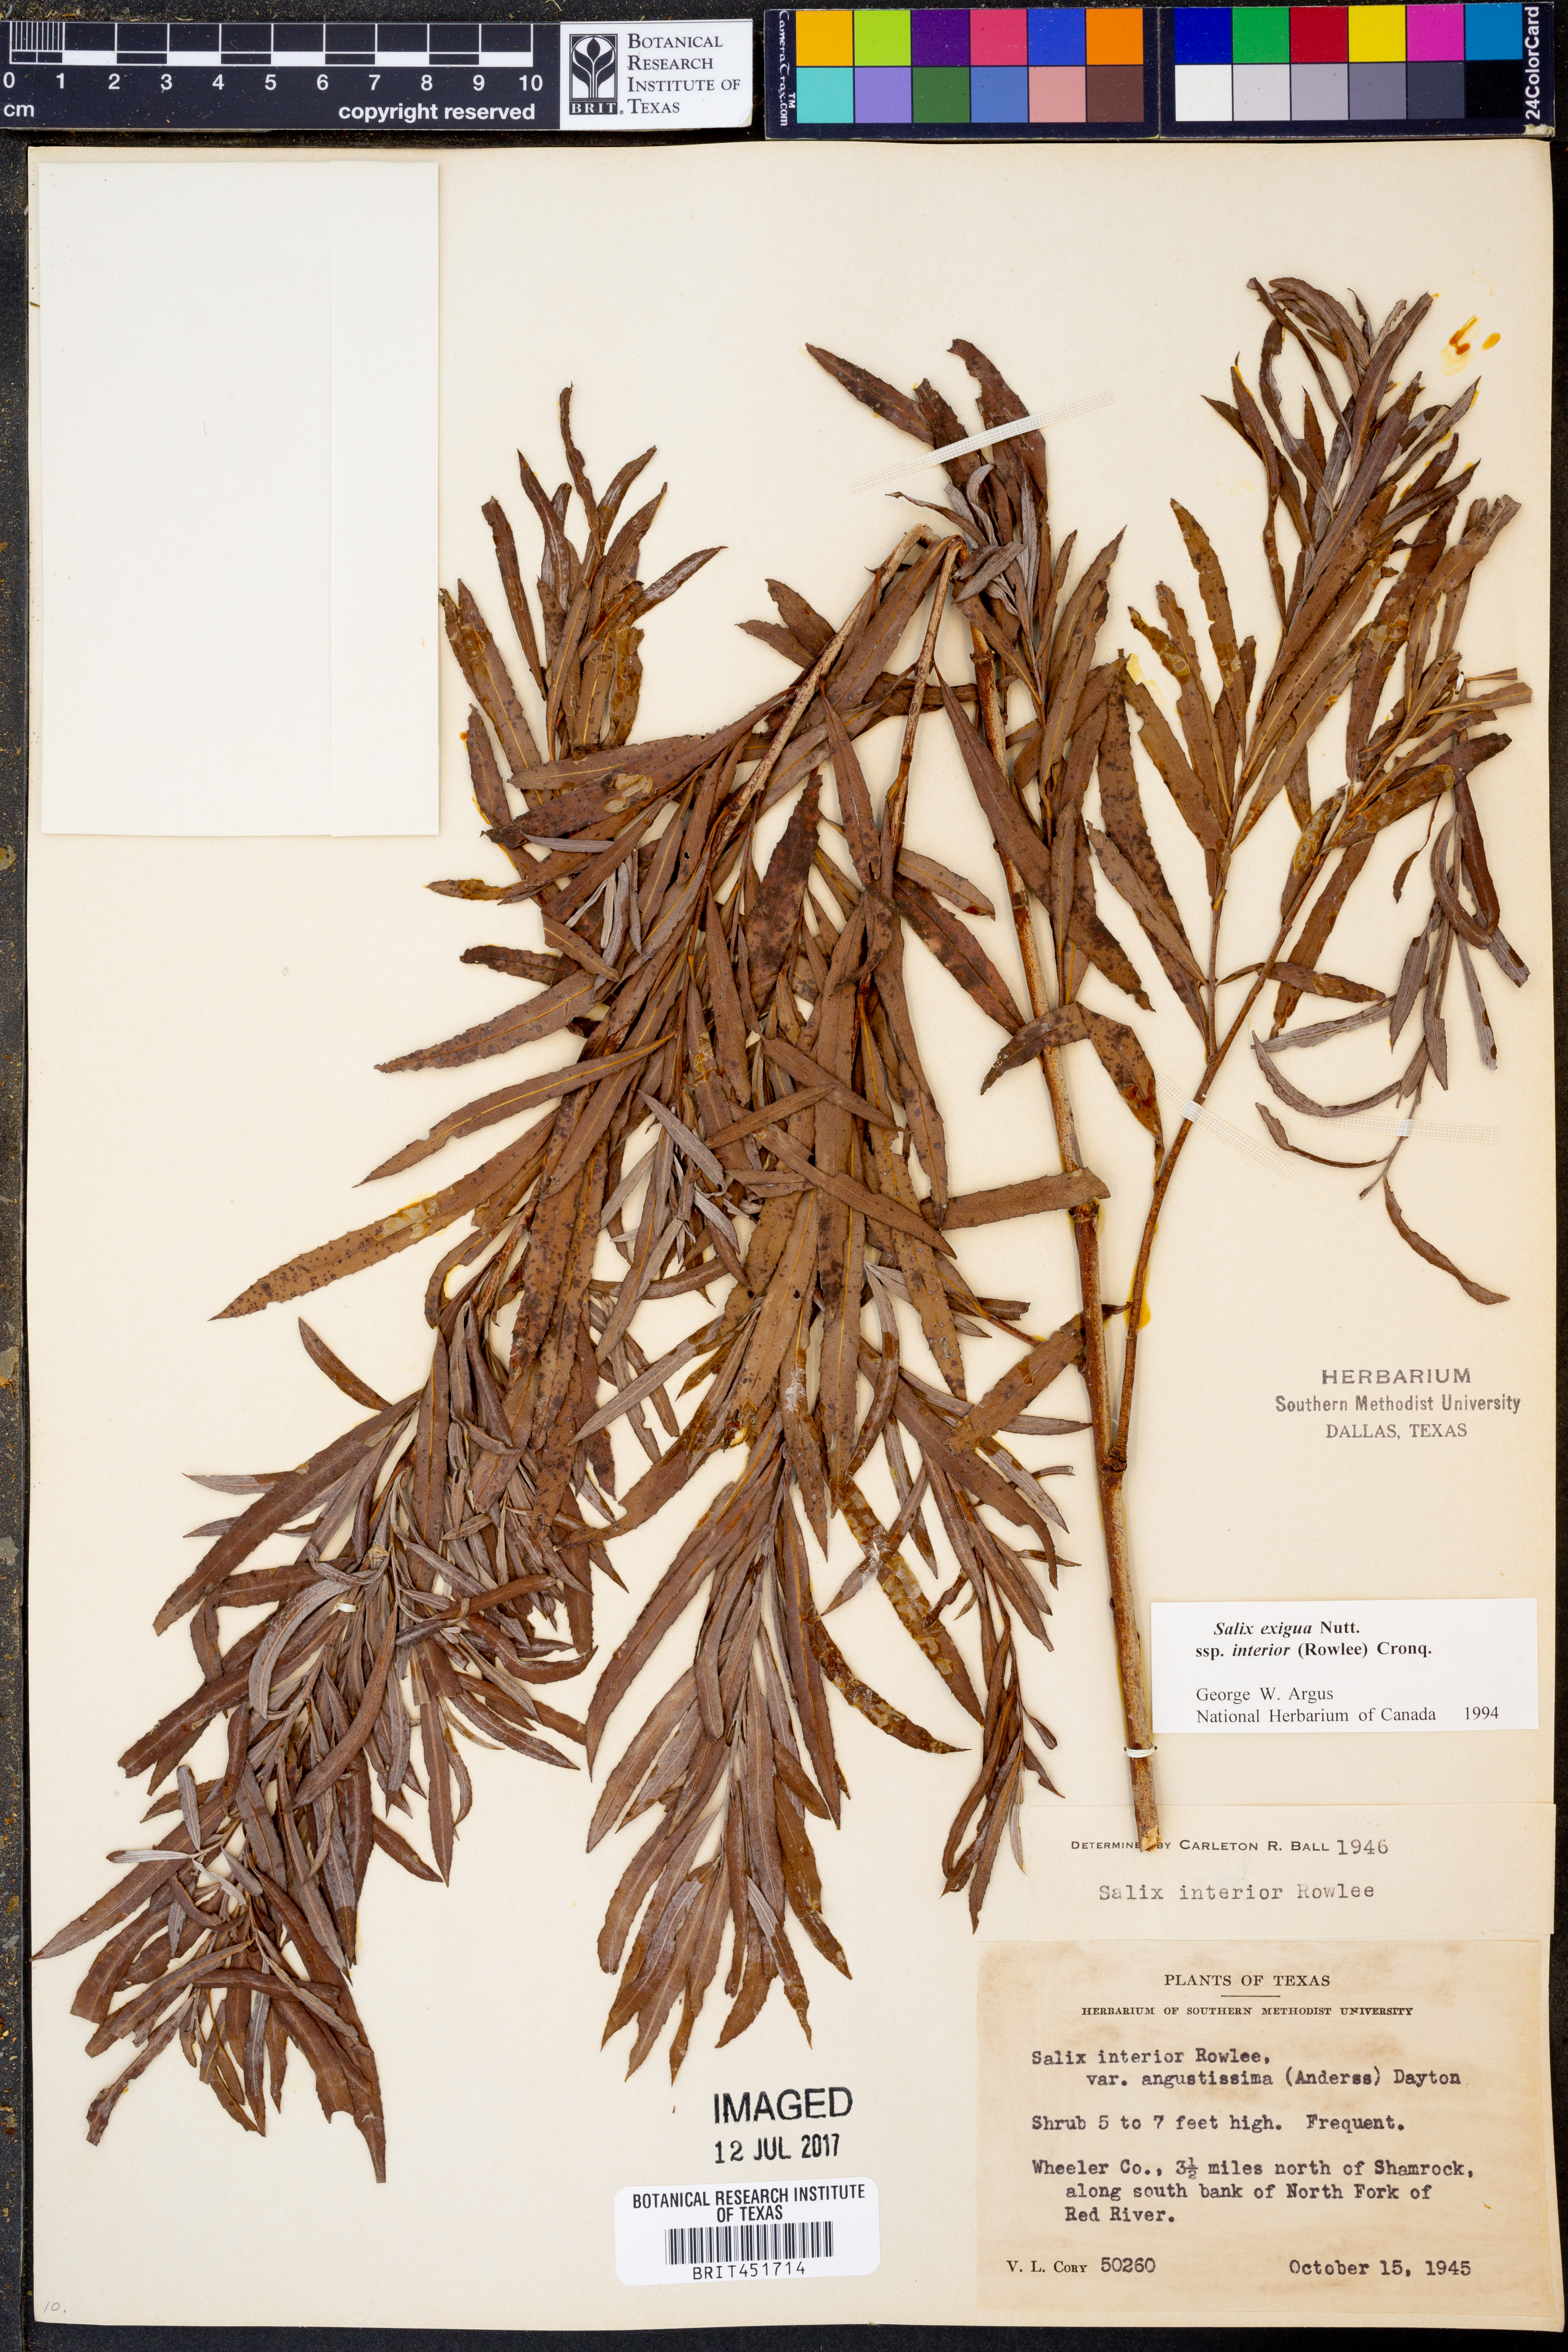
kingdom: Plantae
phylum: Tracheophyta
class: Magnoliopsida
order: Malpighiales
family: Salicaceae
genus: Salix
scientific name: Salix interior
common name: Sandbar willow
